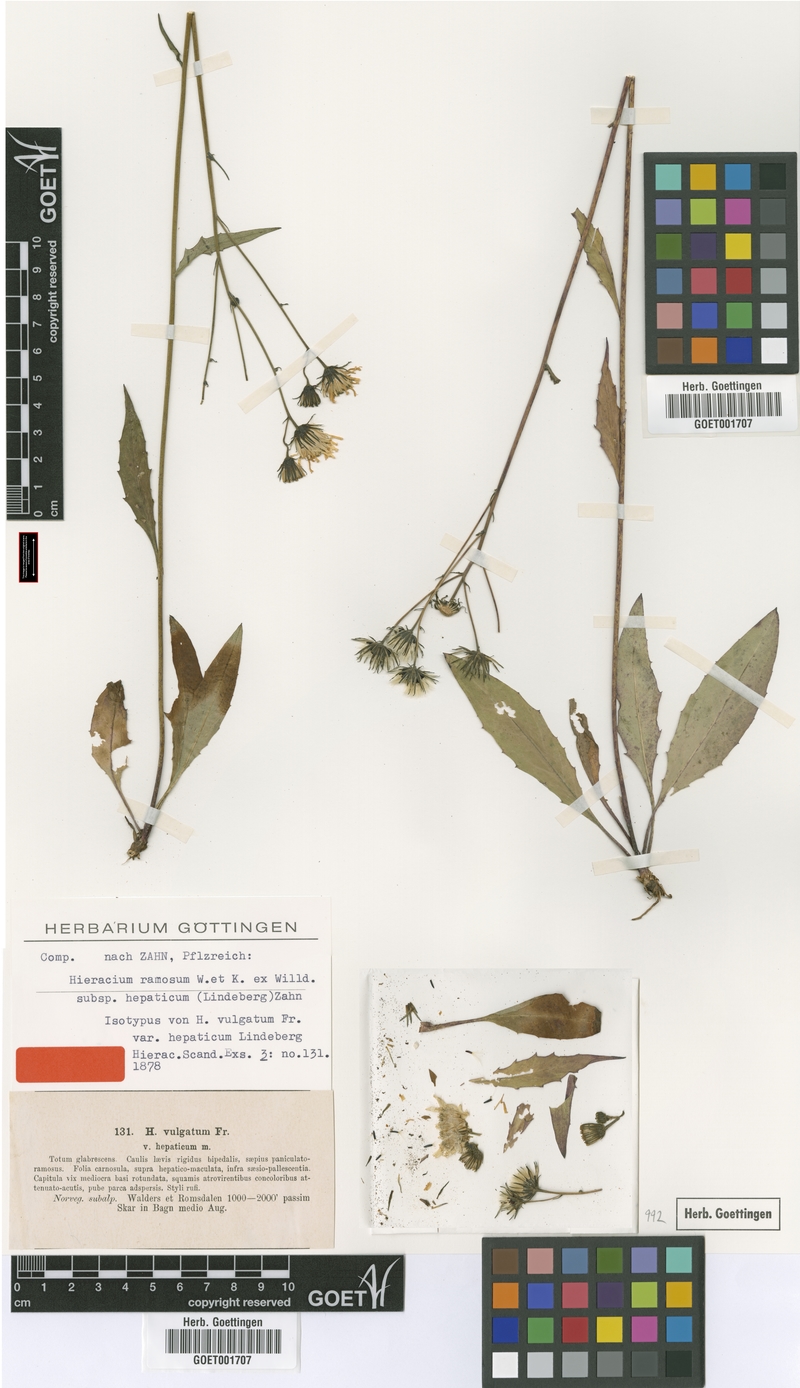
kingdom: Plantae
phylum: Tracheophyta
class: Magnoliopsida
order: Asterales
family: Asteraceae
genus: Hieracium
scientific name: Hieracium hepaticum
